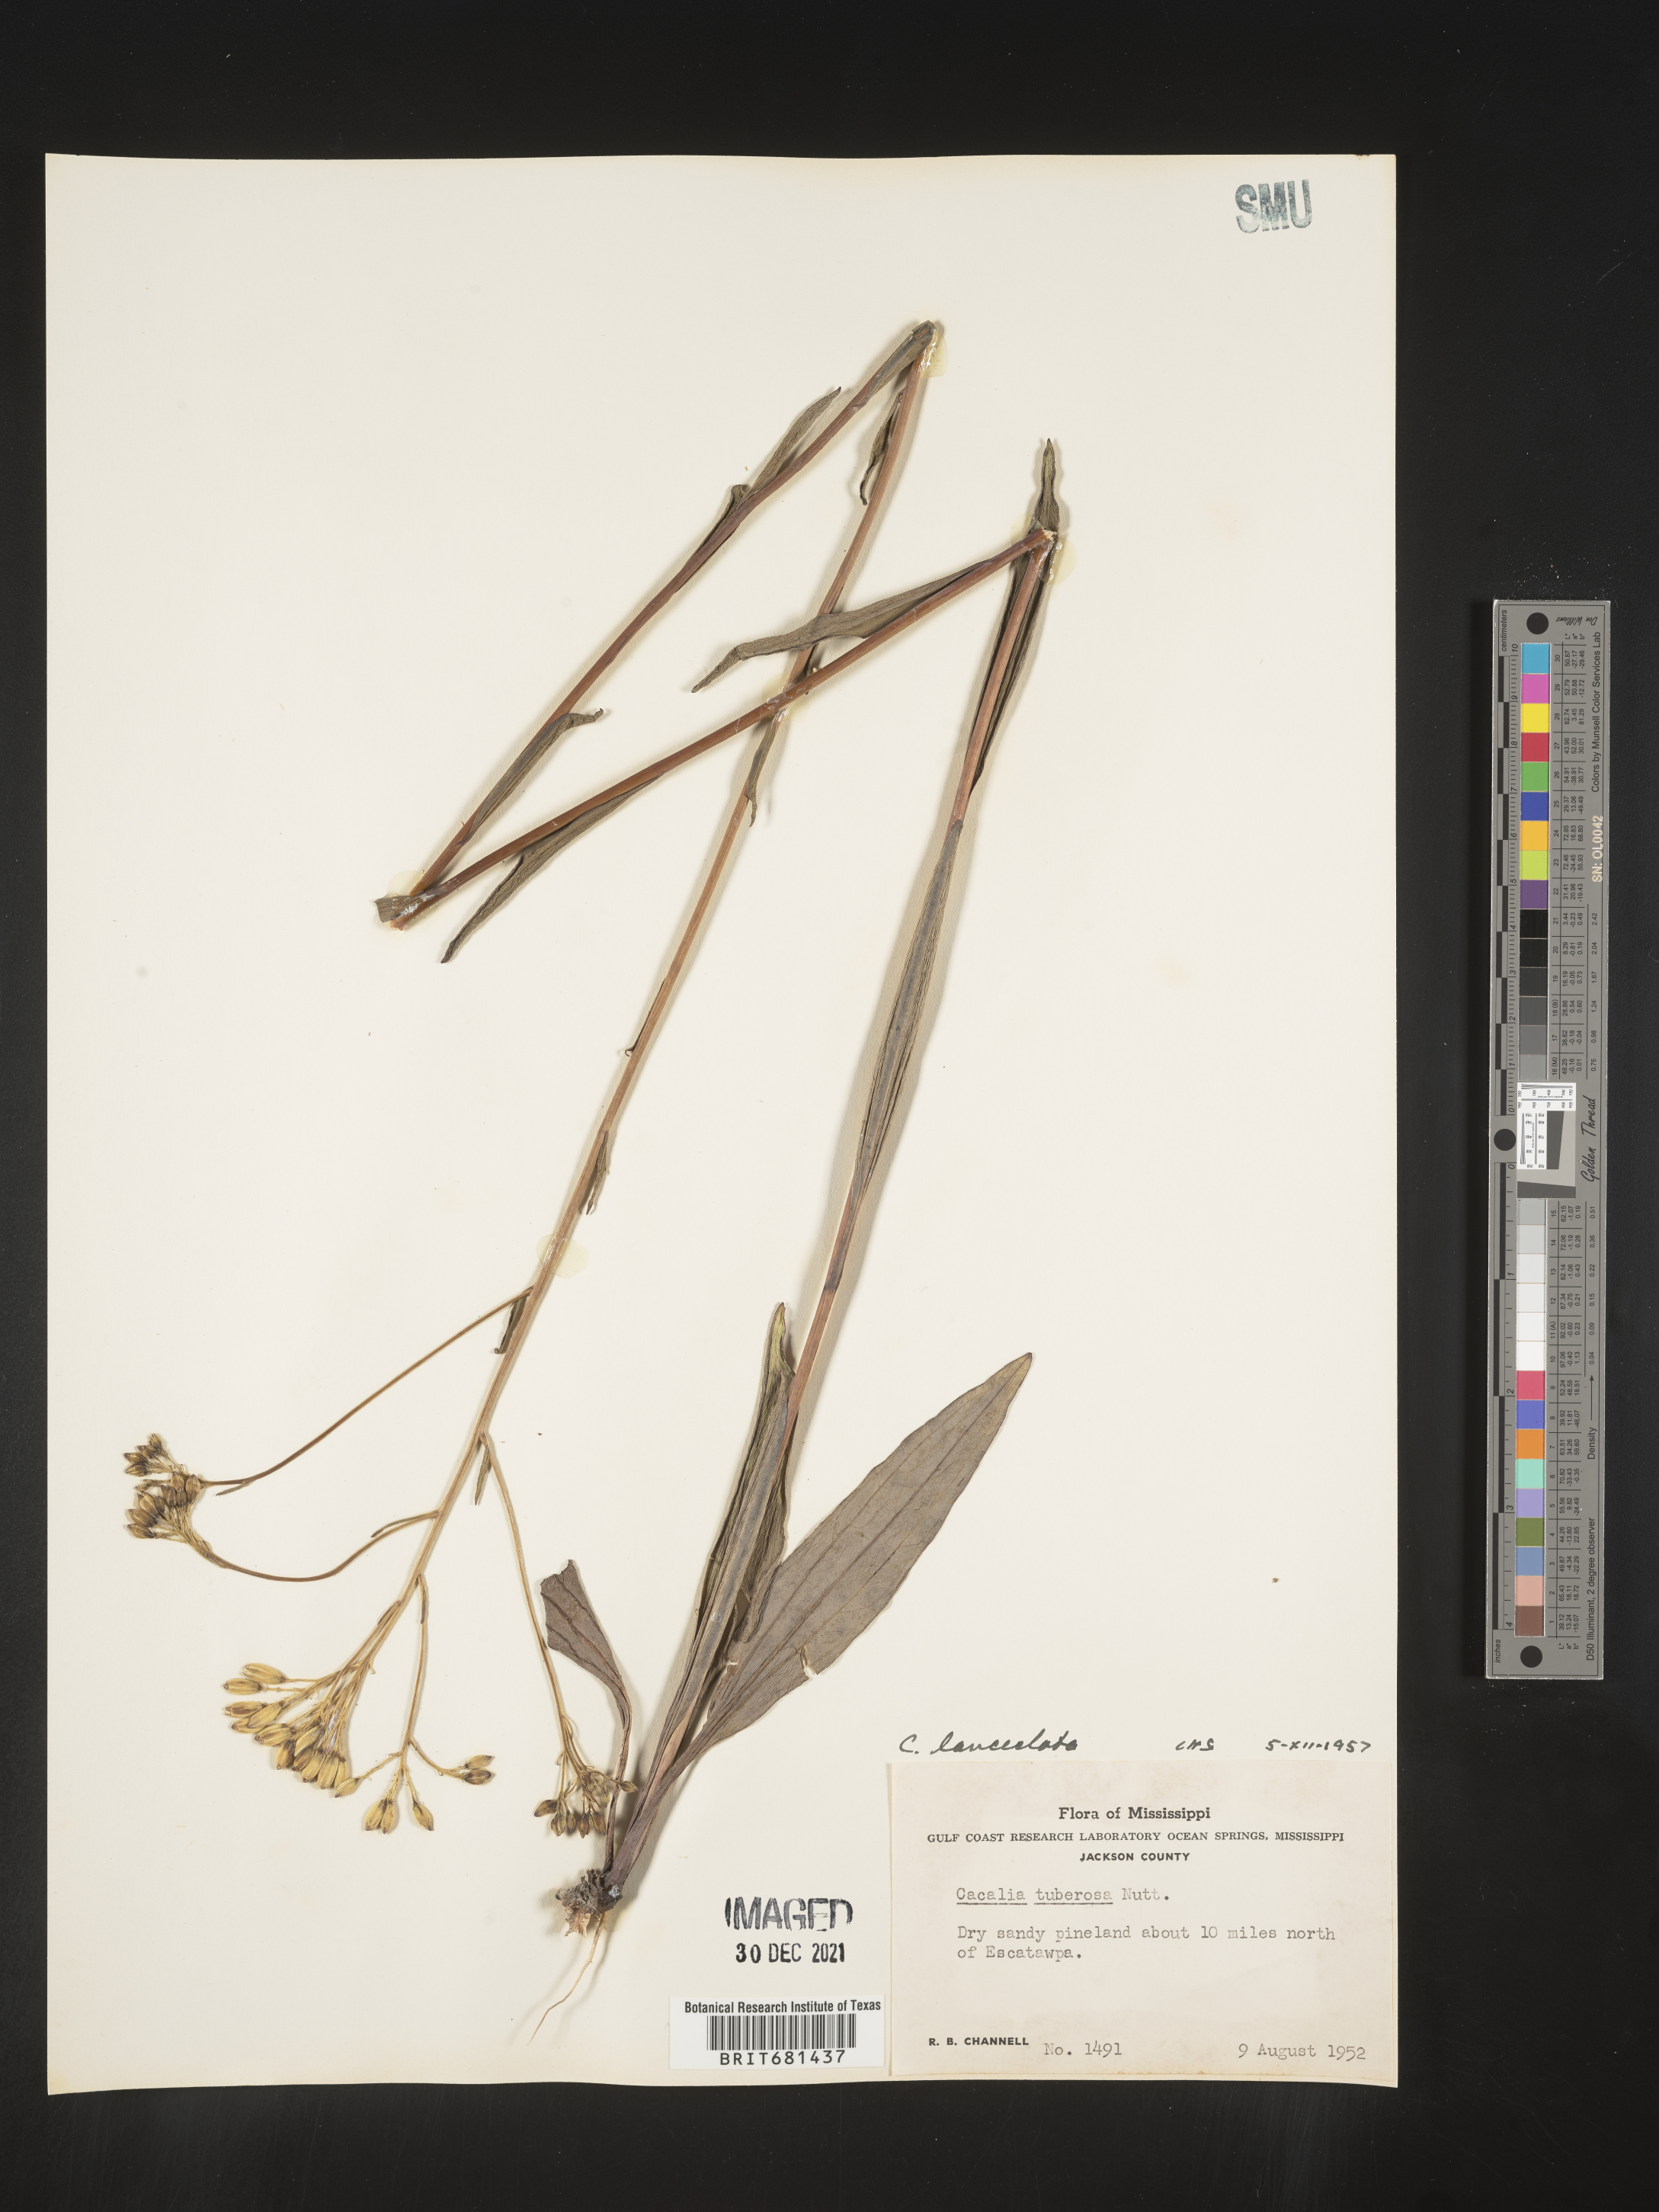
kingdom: Plantae
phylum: Tracheophyta
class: Magnoliopsida
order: Asterales
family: Asteraceae
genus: Arnoglossum
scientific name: Arnoglossum ovatum
